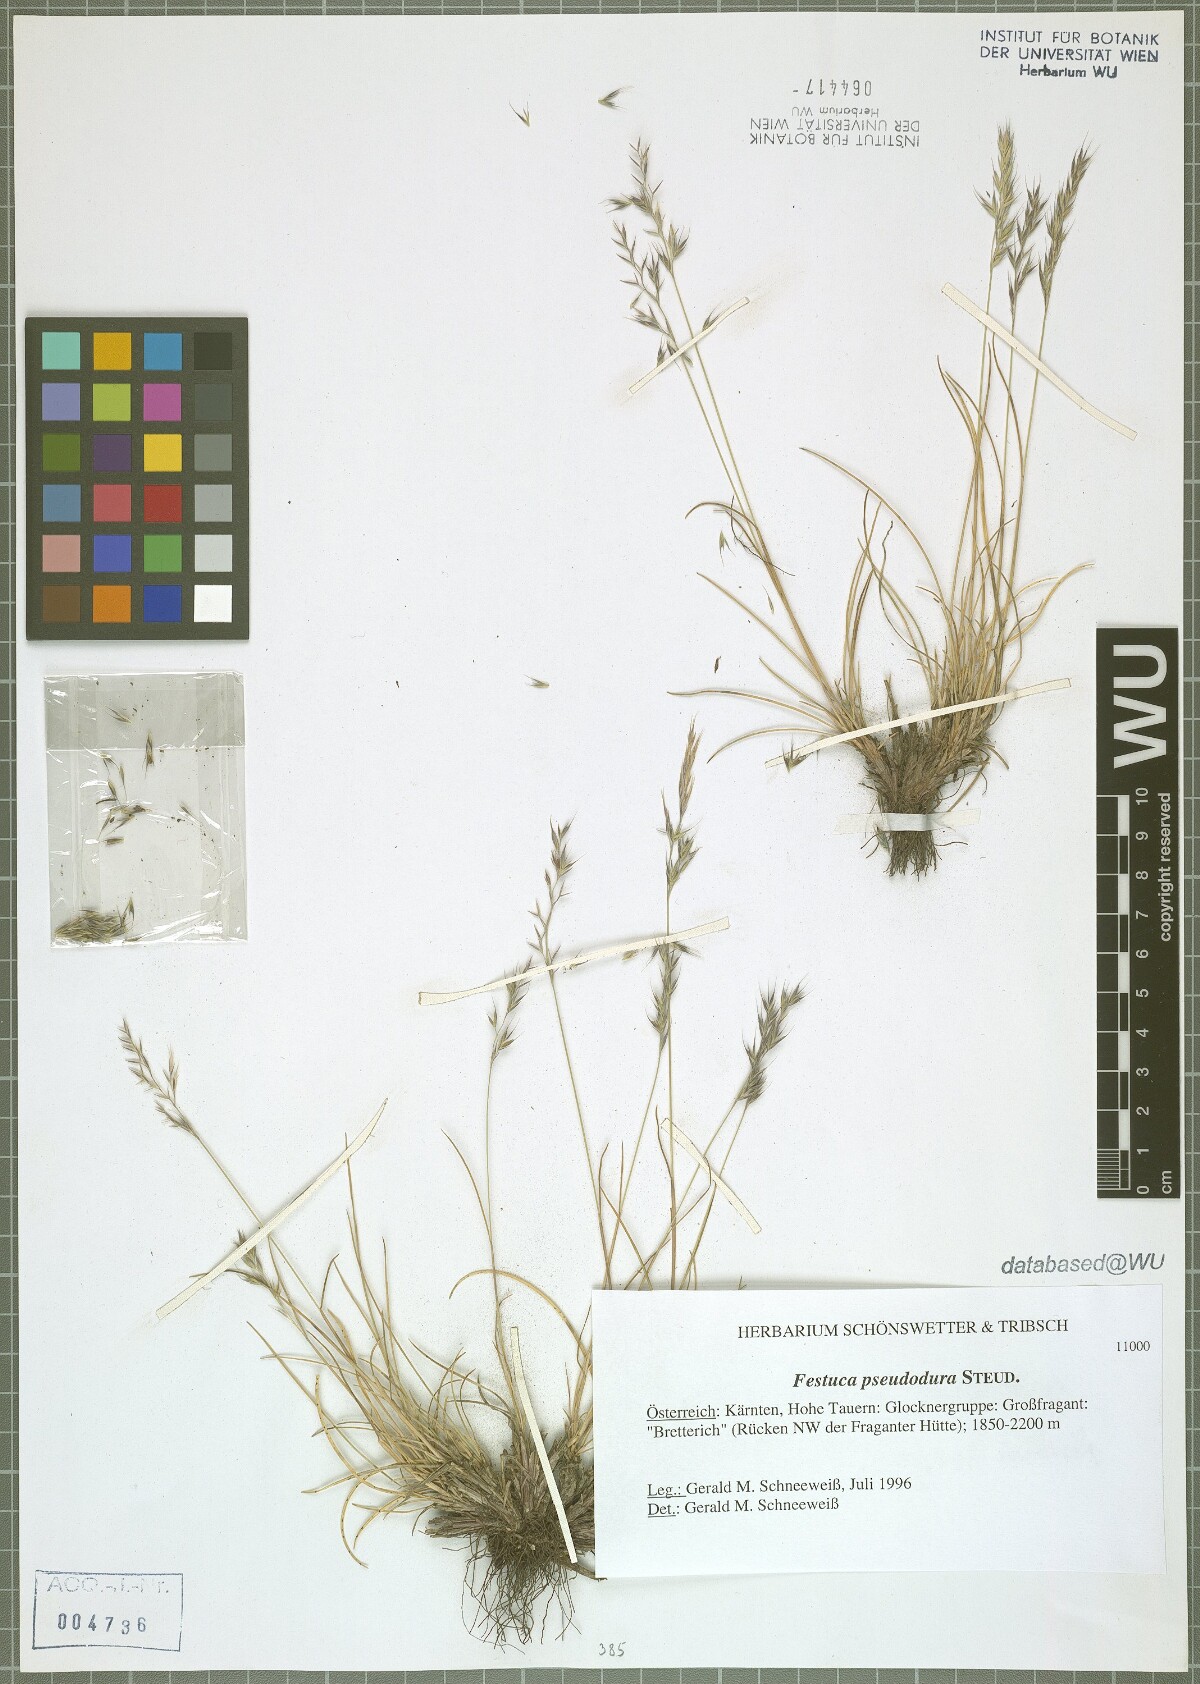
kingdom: Plantae
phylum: Tracheophyta
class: Liliopsida
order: Poales
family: Poaceae
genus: Festuca
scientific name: Festuca pseudodura
